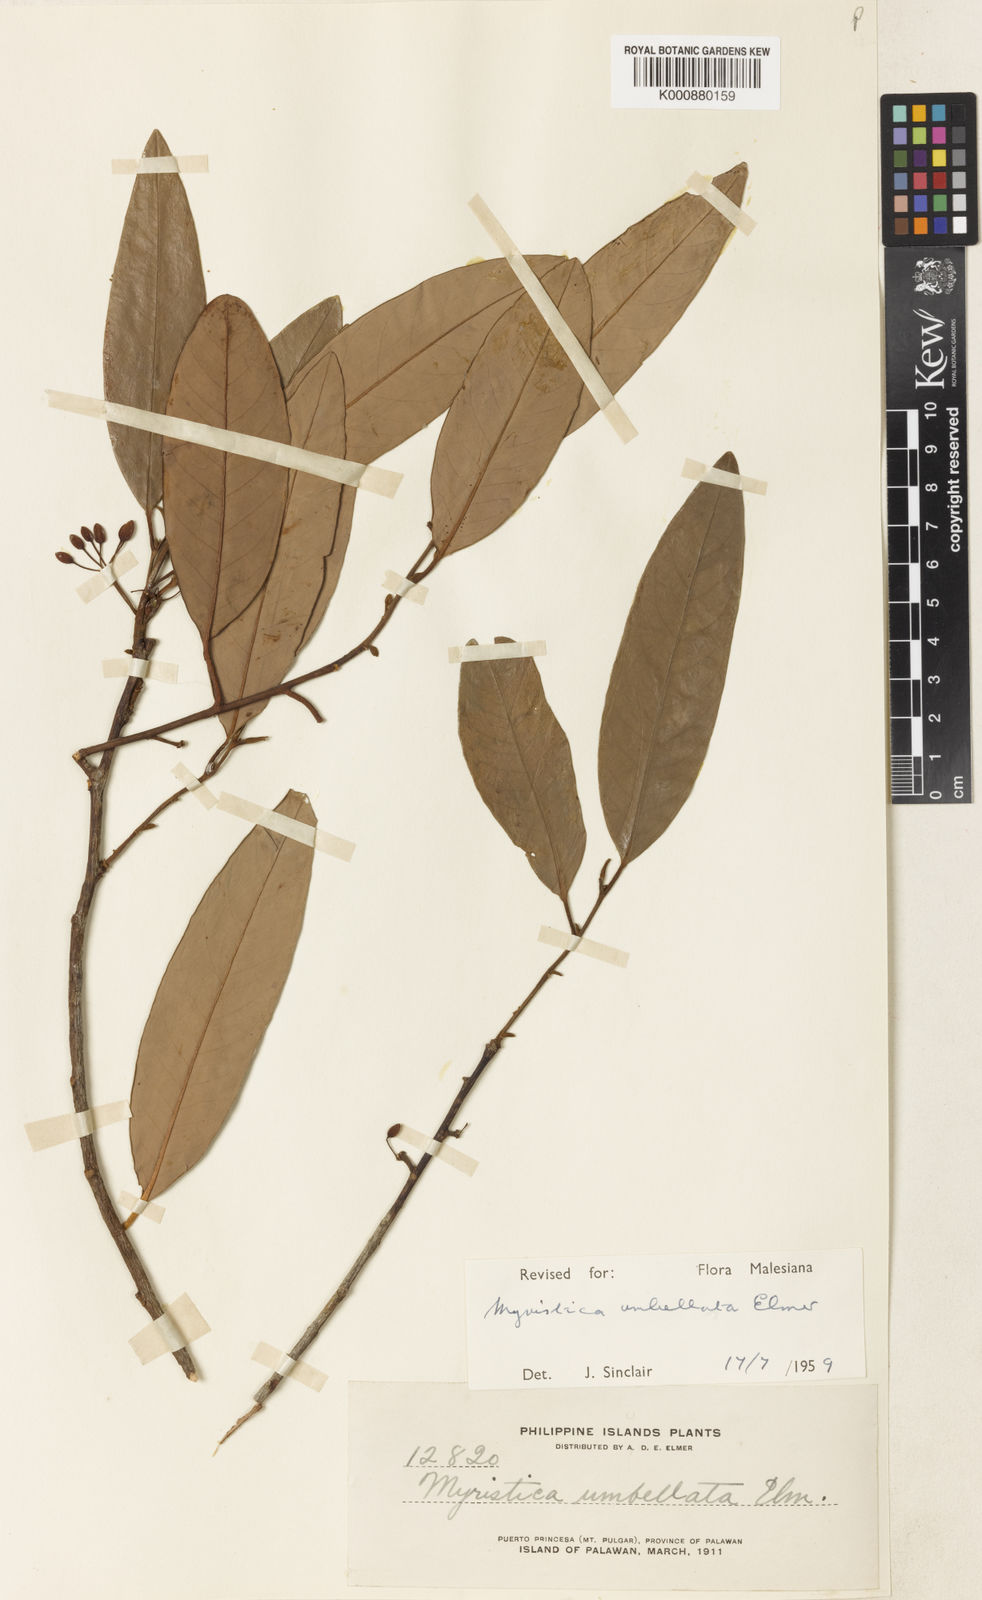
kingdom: Plantae
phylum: Tracheophyta
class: Magnoliopsida
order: Magnoliales
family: Myristicaceae
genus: Myristica
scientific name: Myristica iners
